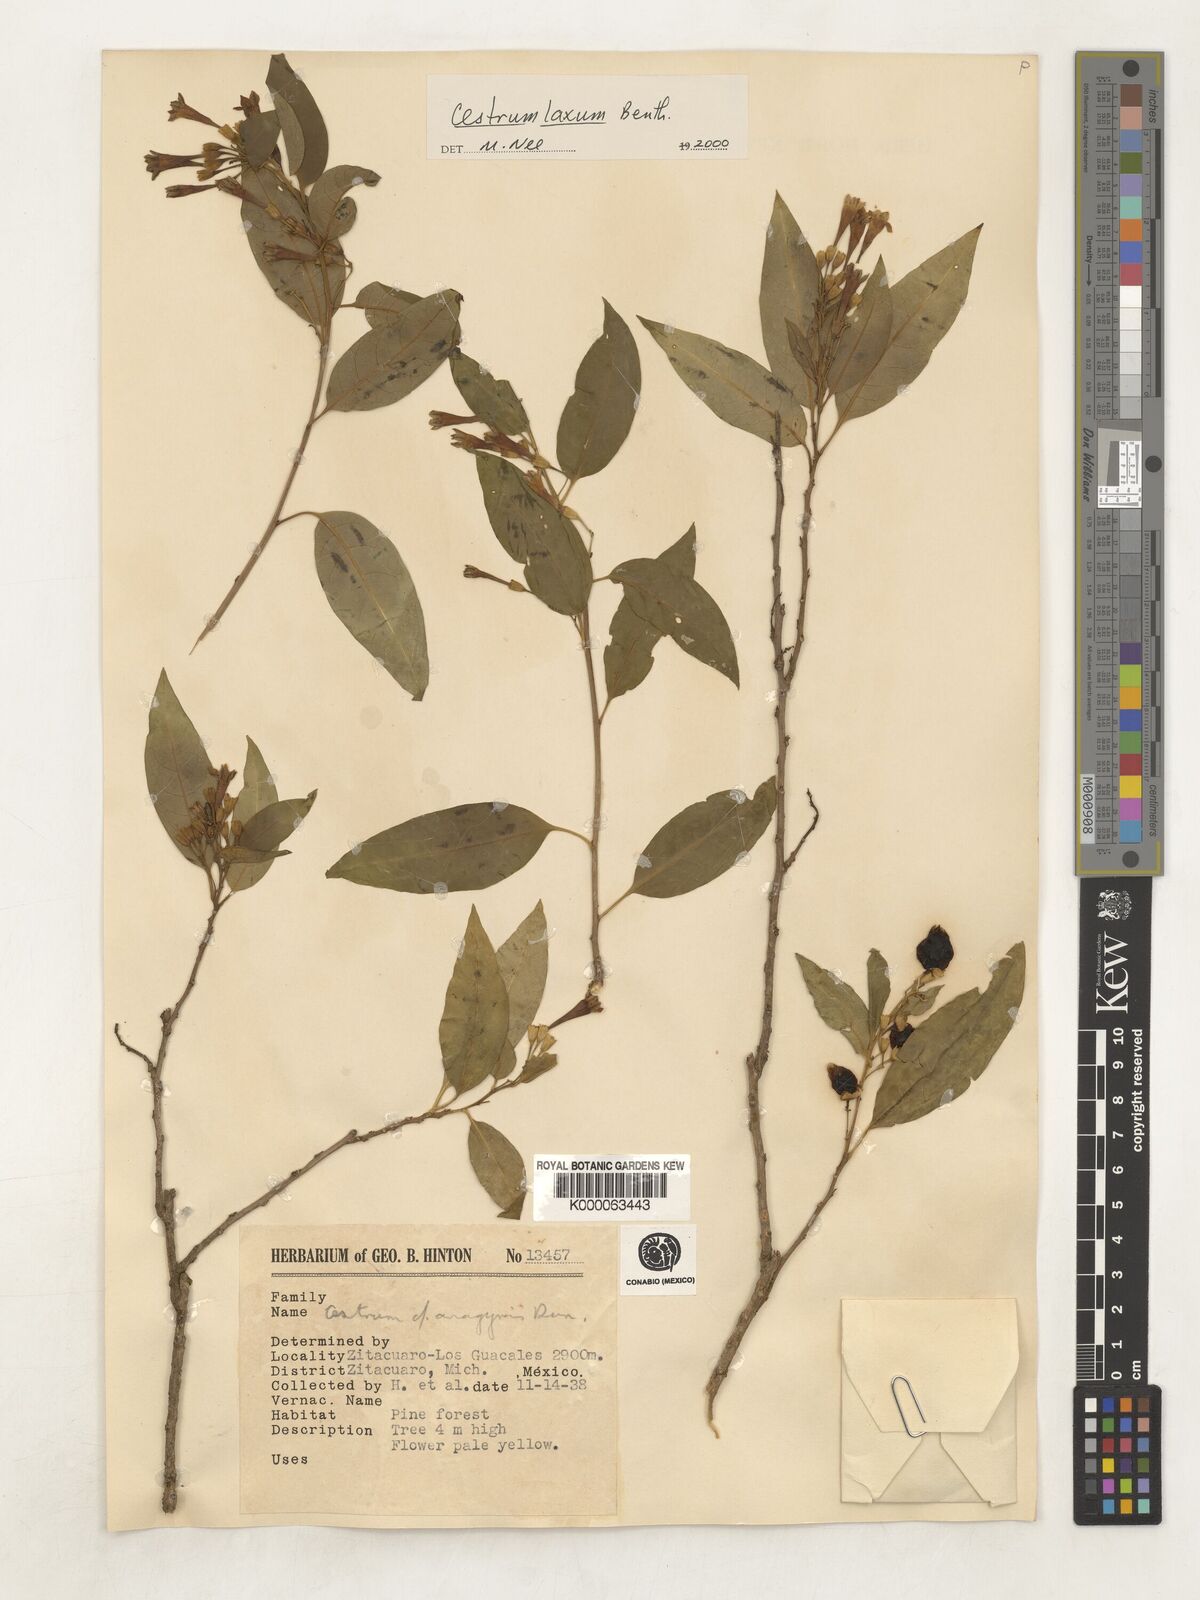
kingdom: Plantae
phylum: Tracheophyta
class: Magnoliopsida
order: Solanales
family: Solanaceae
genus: Cestrum
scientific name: Cestrum laxum
